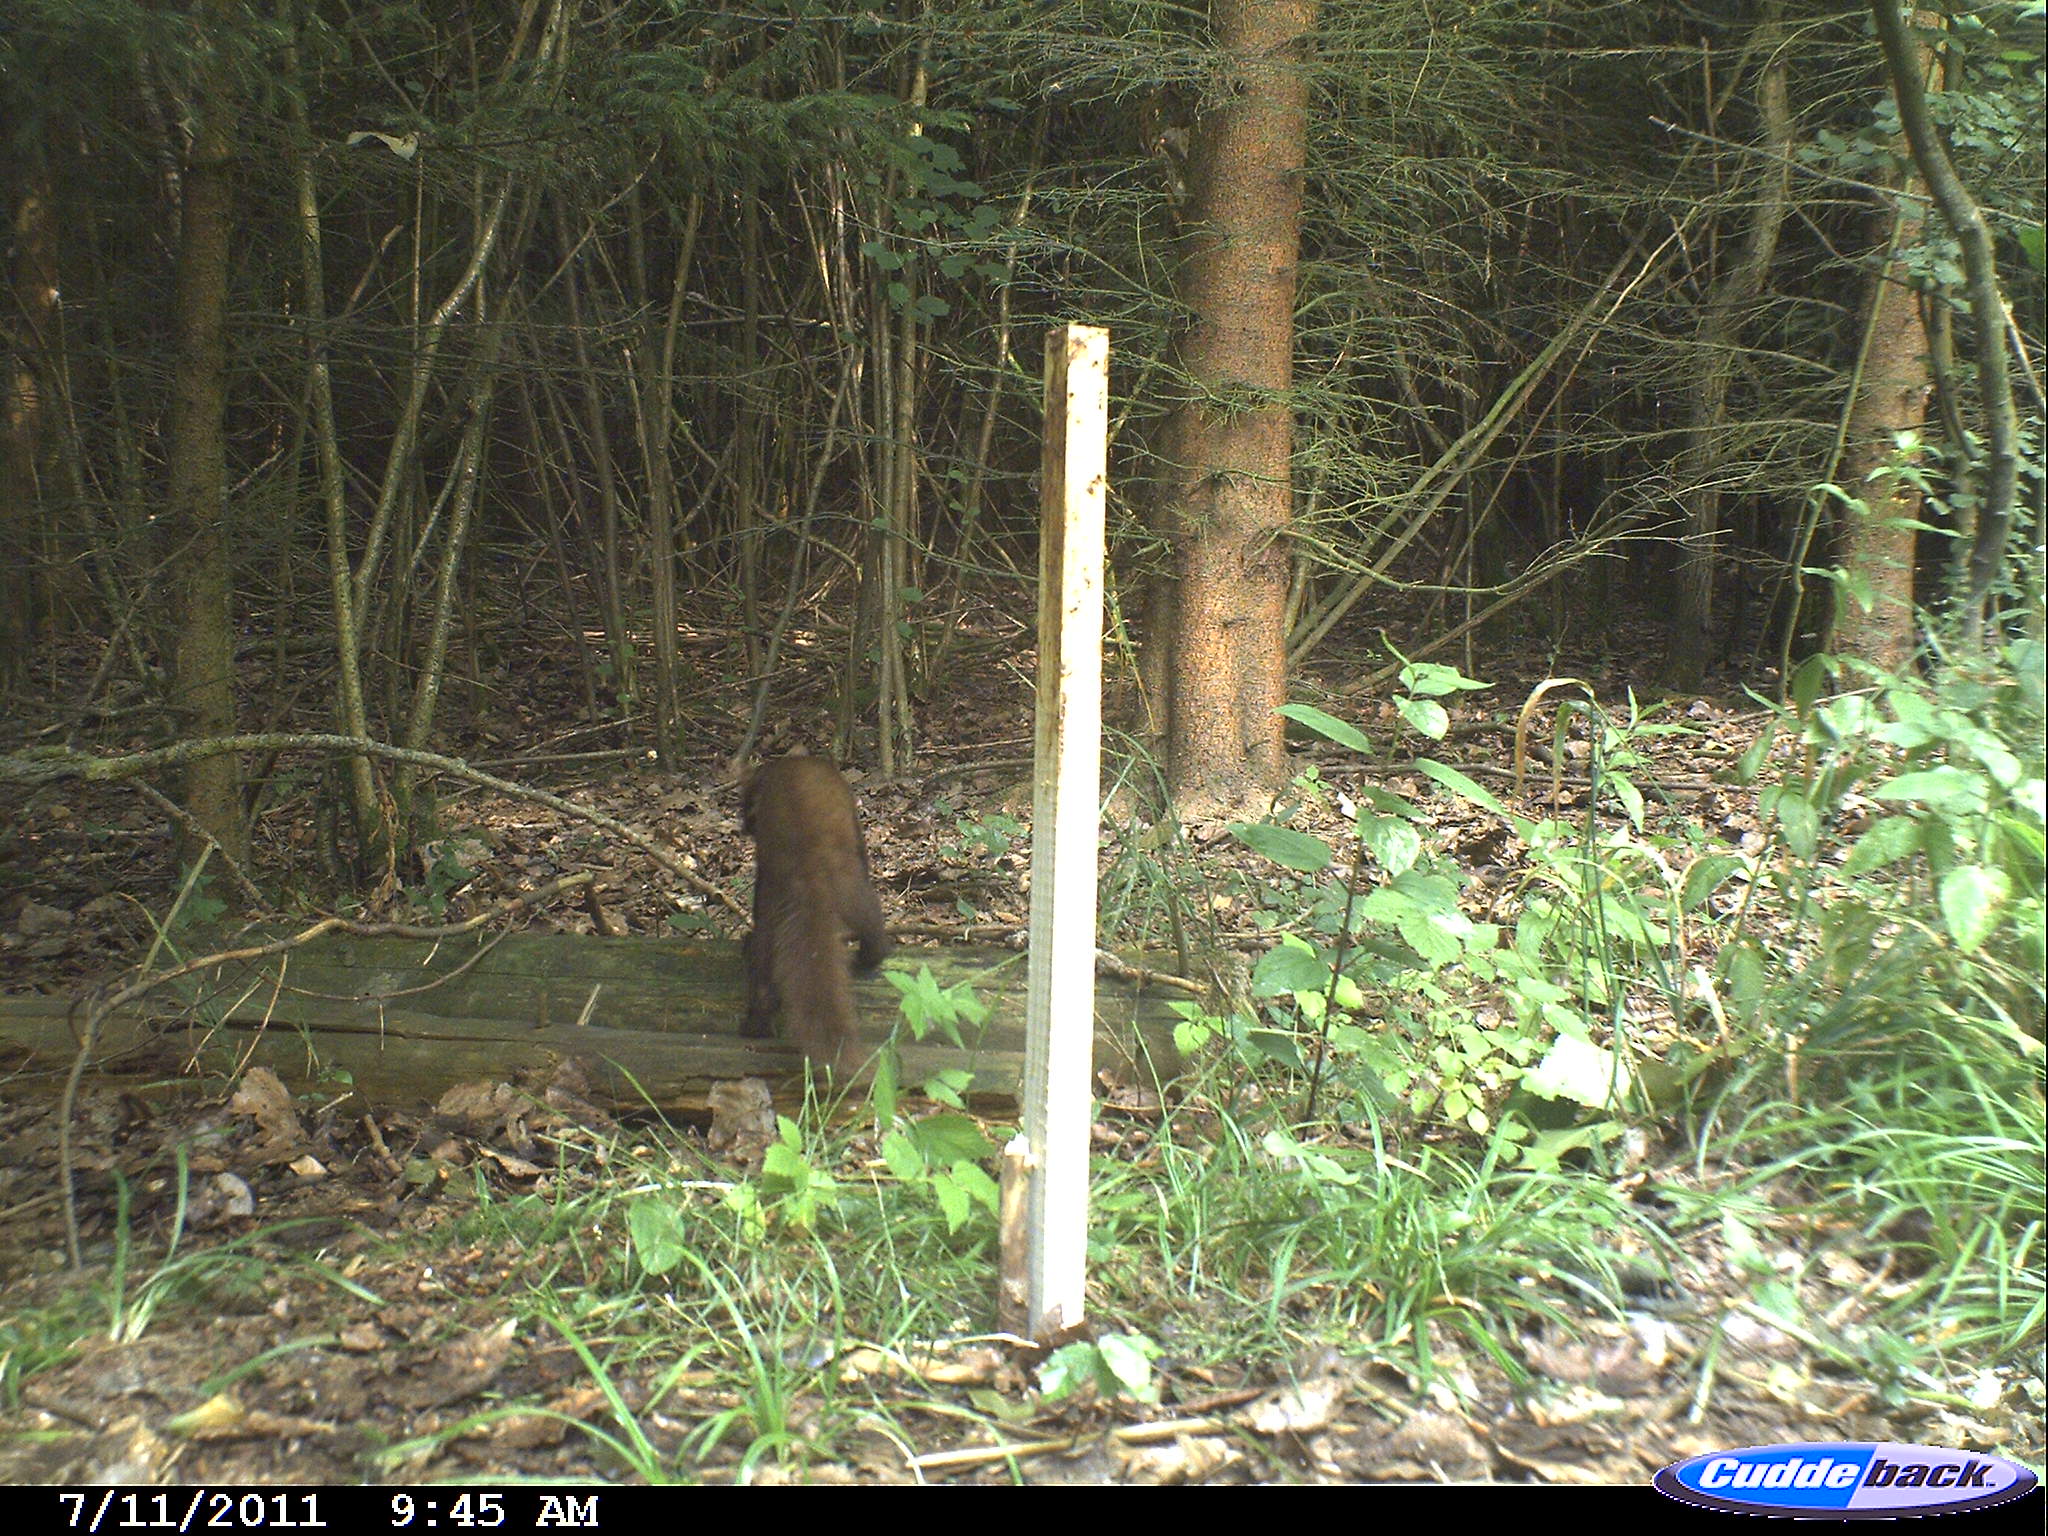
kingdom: Animalia
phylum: Chordata
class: Mammalia
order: Carnivora
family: Mustelidae
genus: Martes
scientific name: Martes
